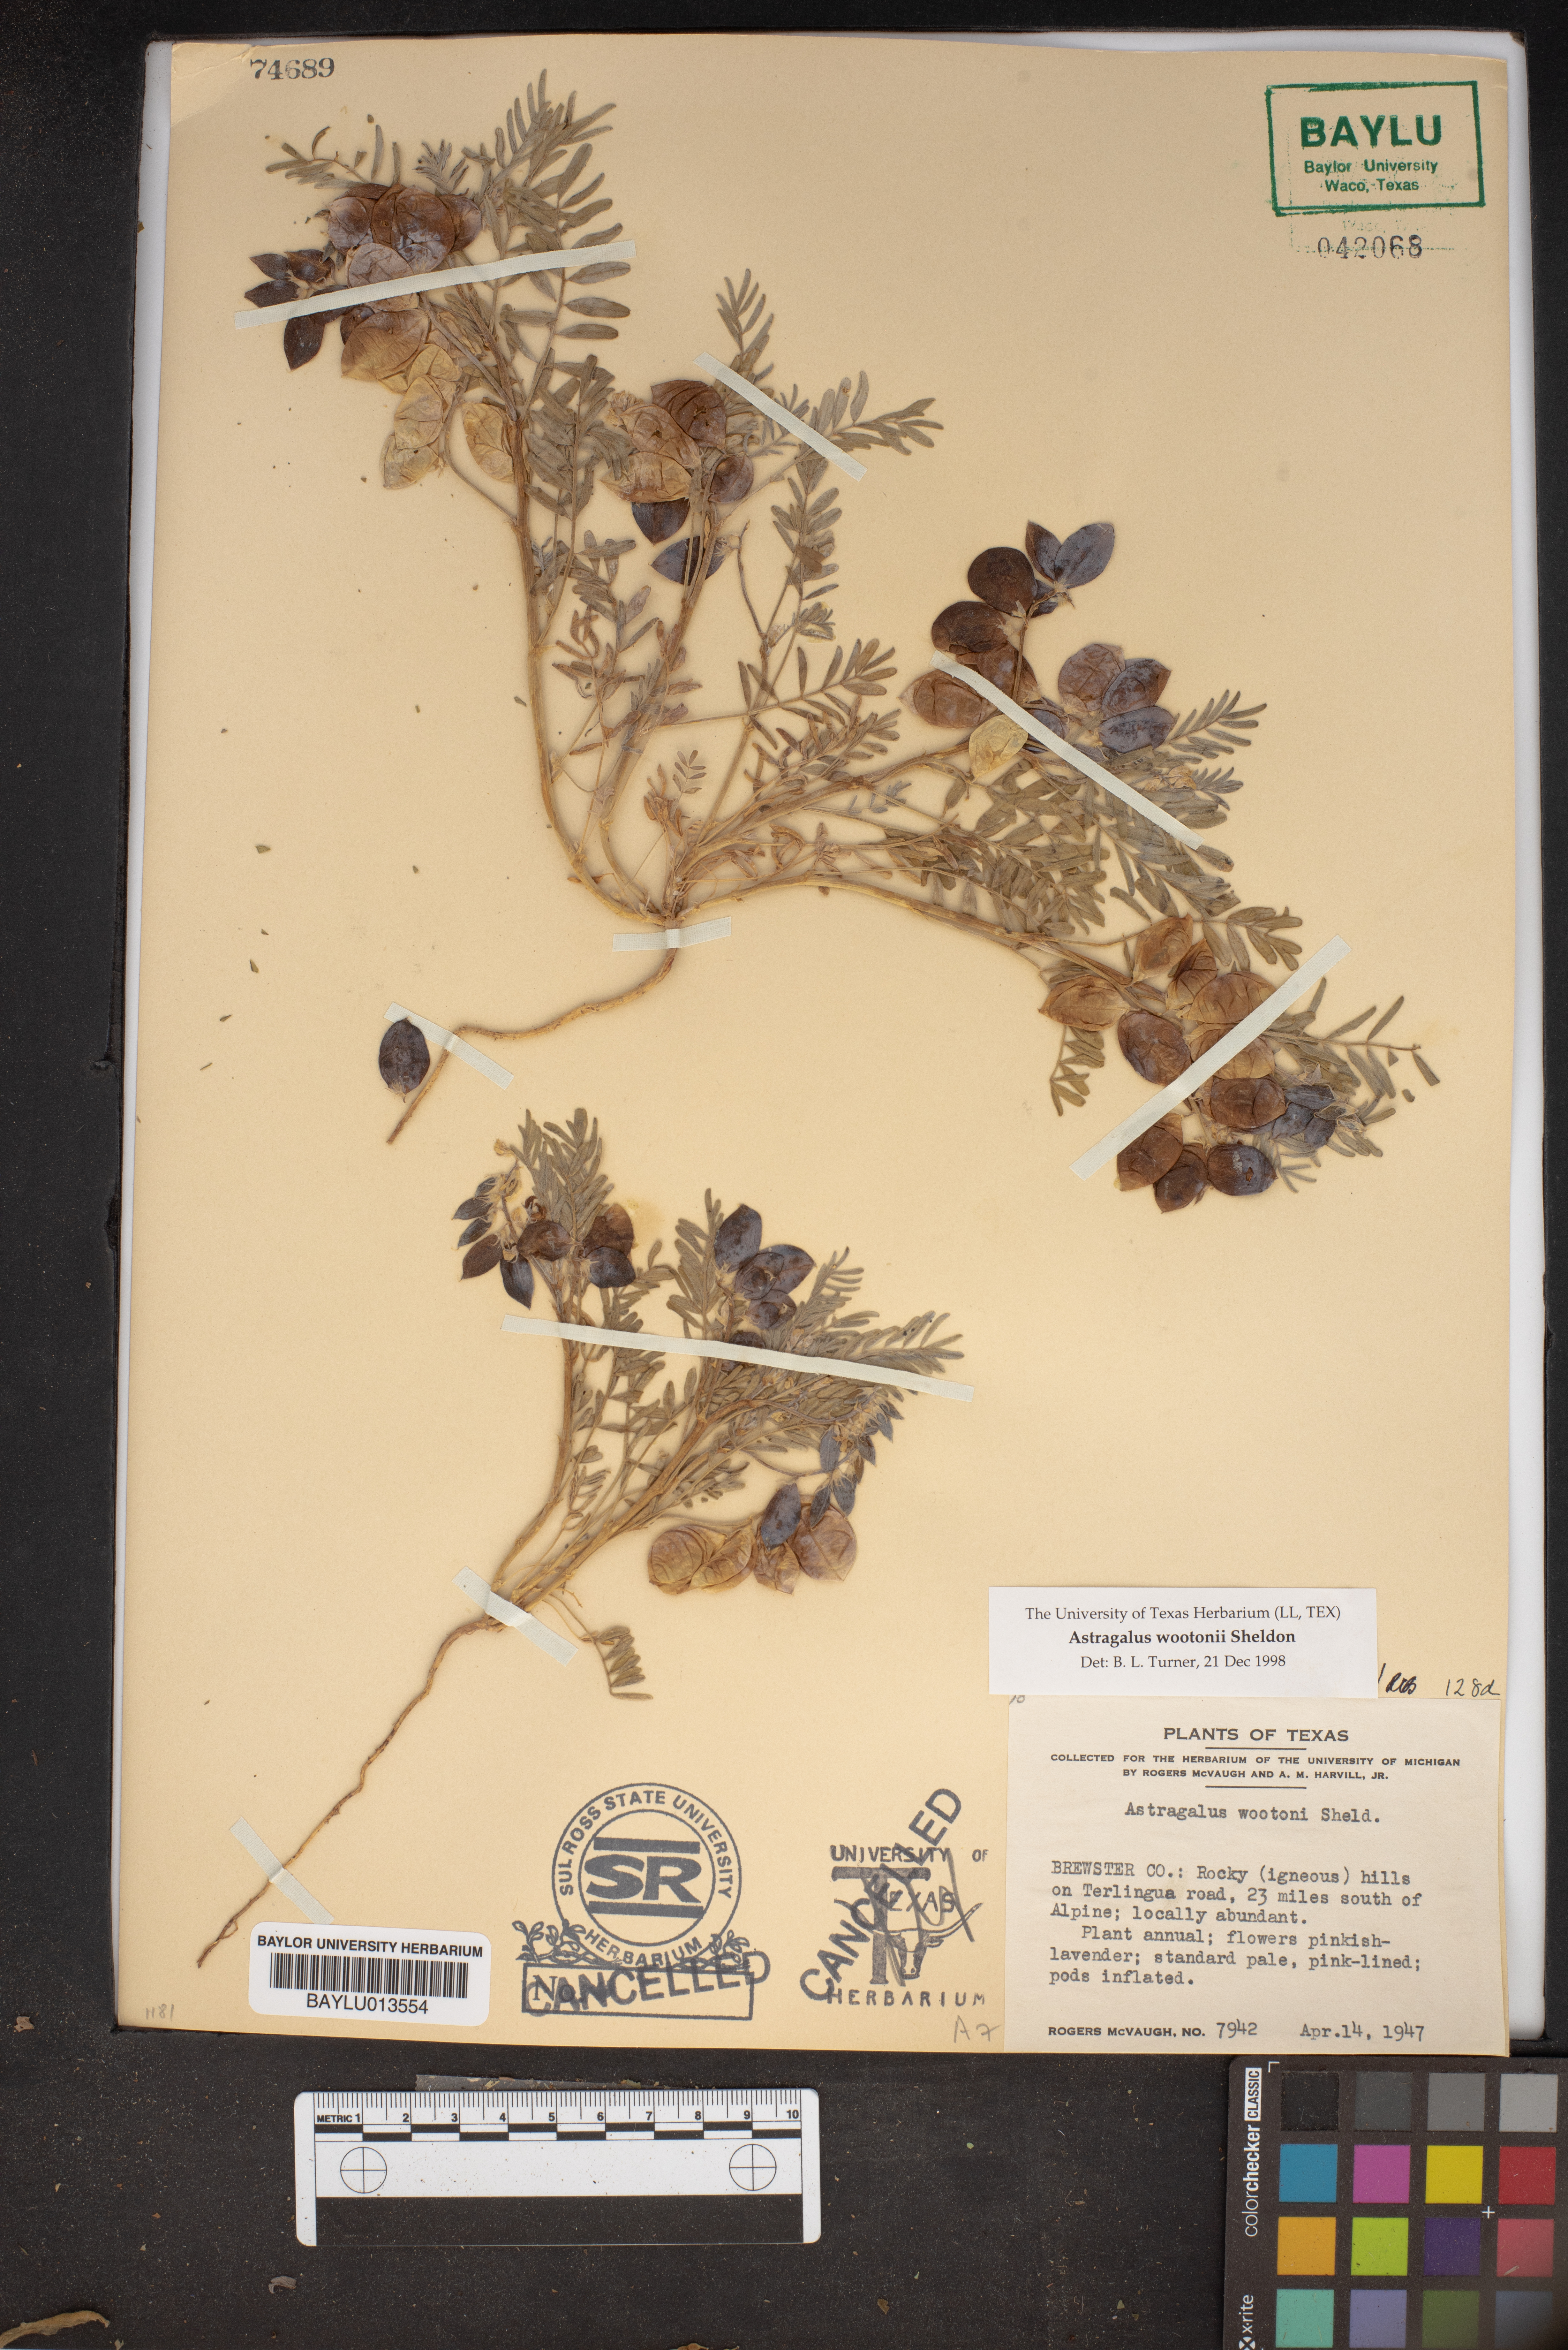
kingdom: Plantae
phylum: Tracheophyta
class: Magnoliopsida
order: Fabales
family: Fabaceae
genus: Astragalus
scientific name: Astragalus wootonii
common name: Wooton's milk-vetch
